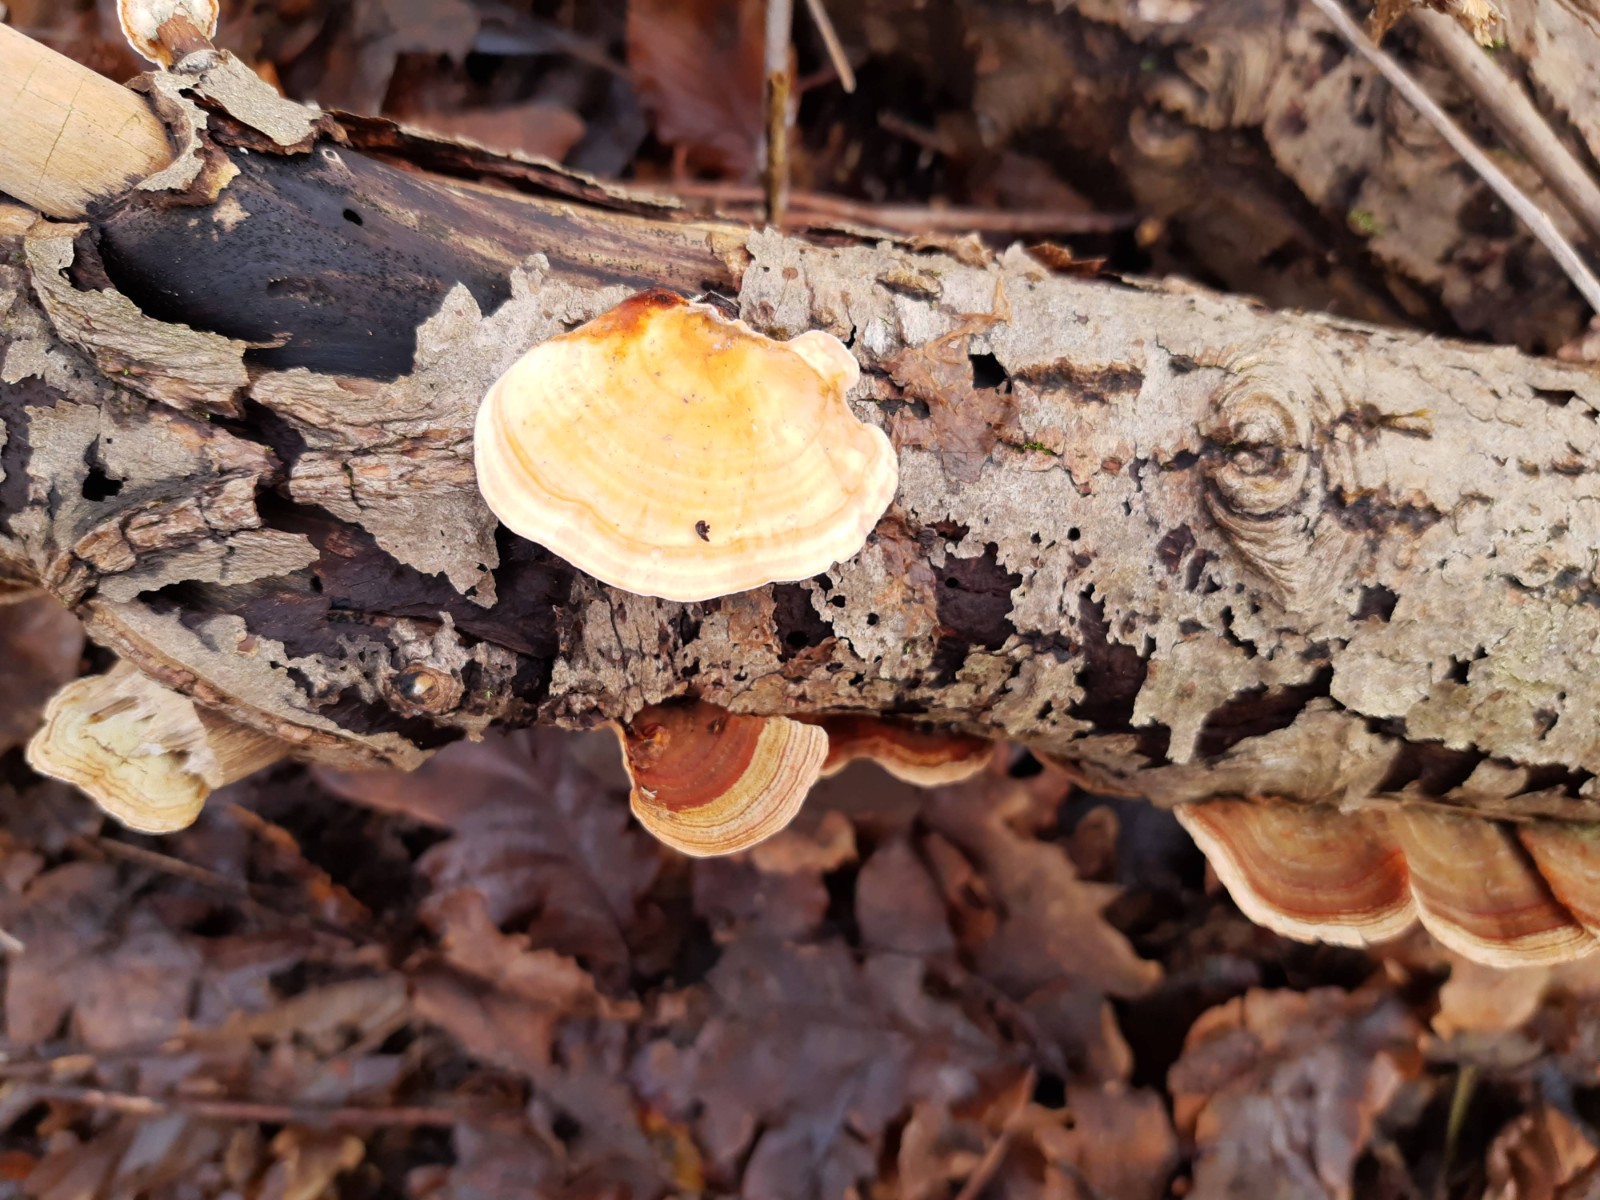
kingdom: Fungi
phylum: Basidiomycota
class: Agaricomycetes
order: Russulales
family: Stereaceae
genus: Stereum
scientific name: Stereum subtomentosum
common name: smuk lædersvamp
